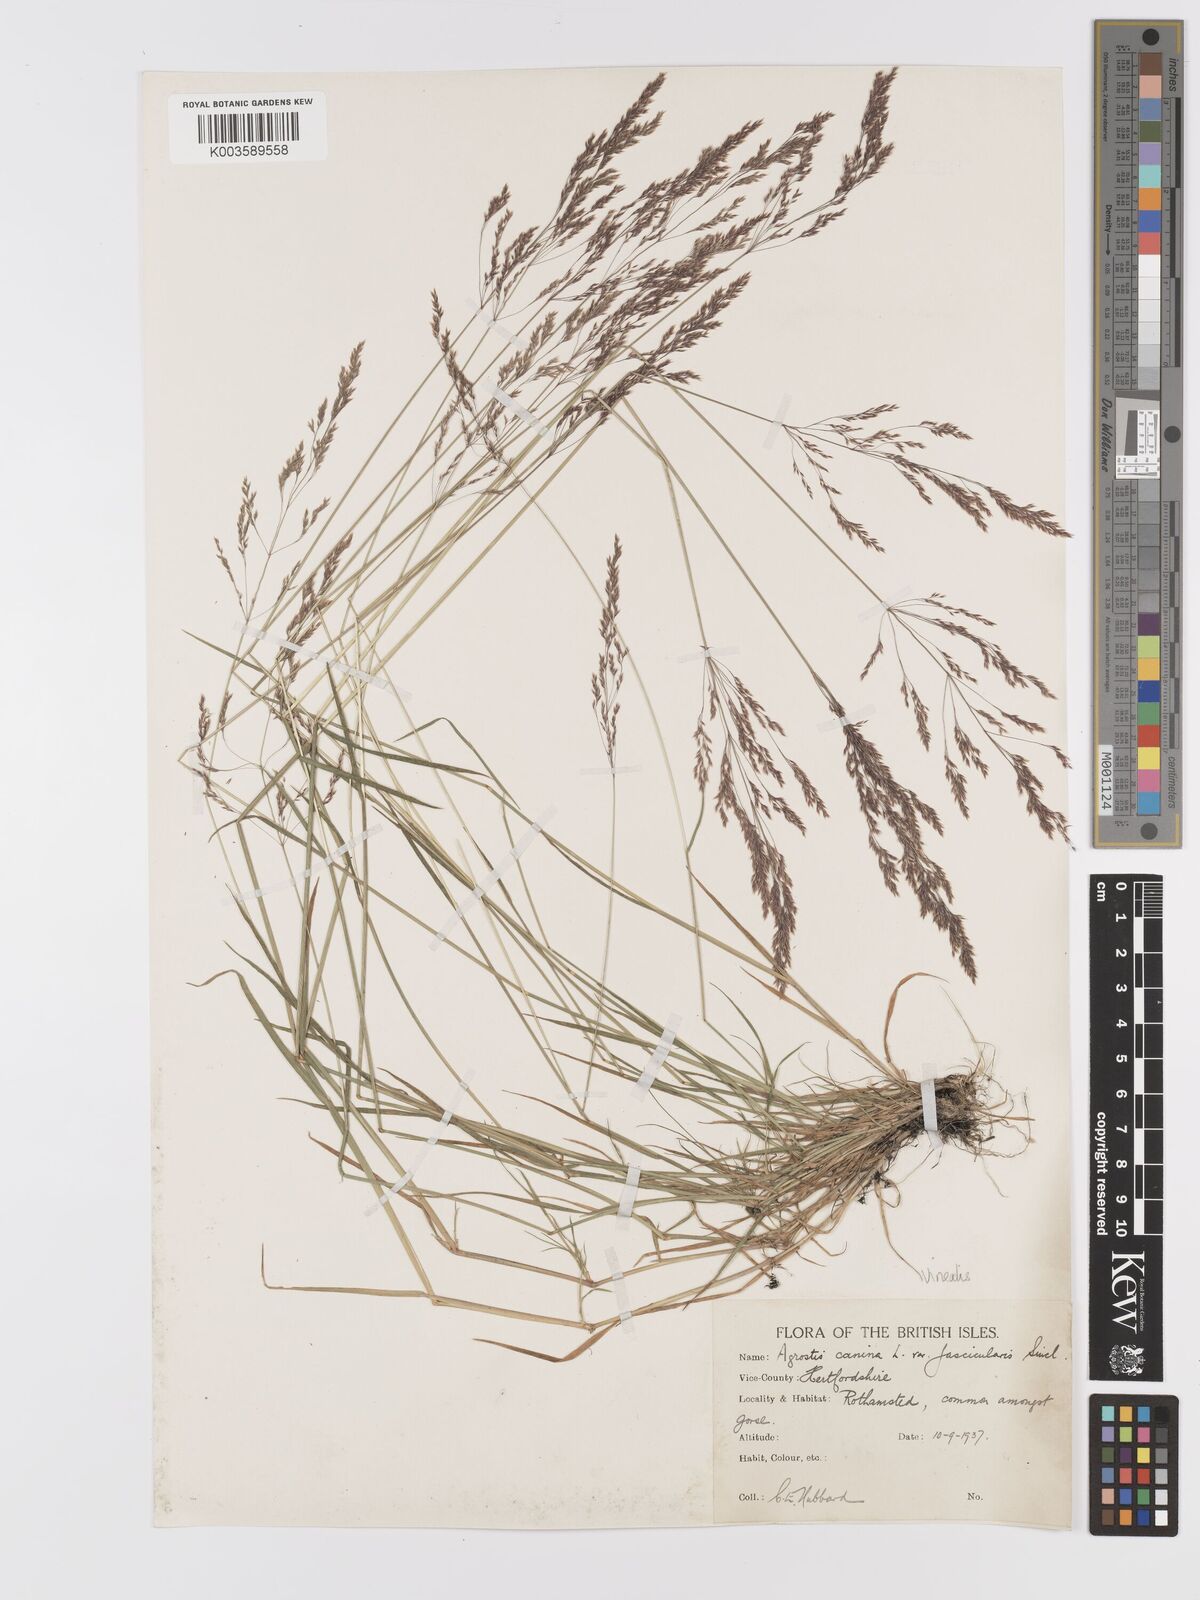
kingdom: Plantae
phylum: Tracheophyta
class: Liliopsida
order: Poales
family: Poaceae
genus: Agrostis
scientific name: Agrostis
